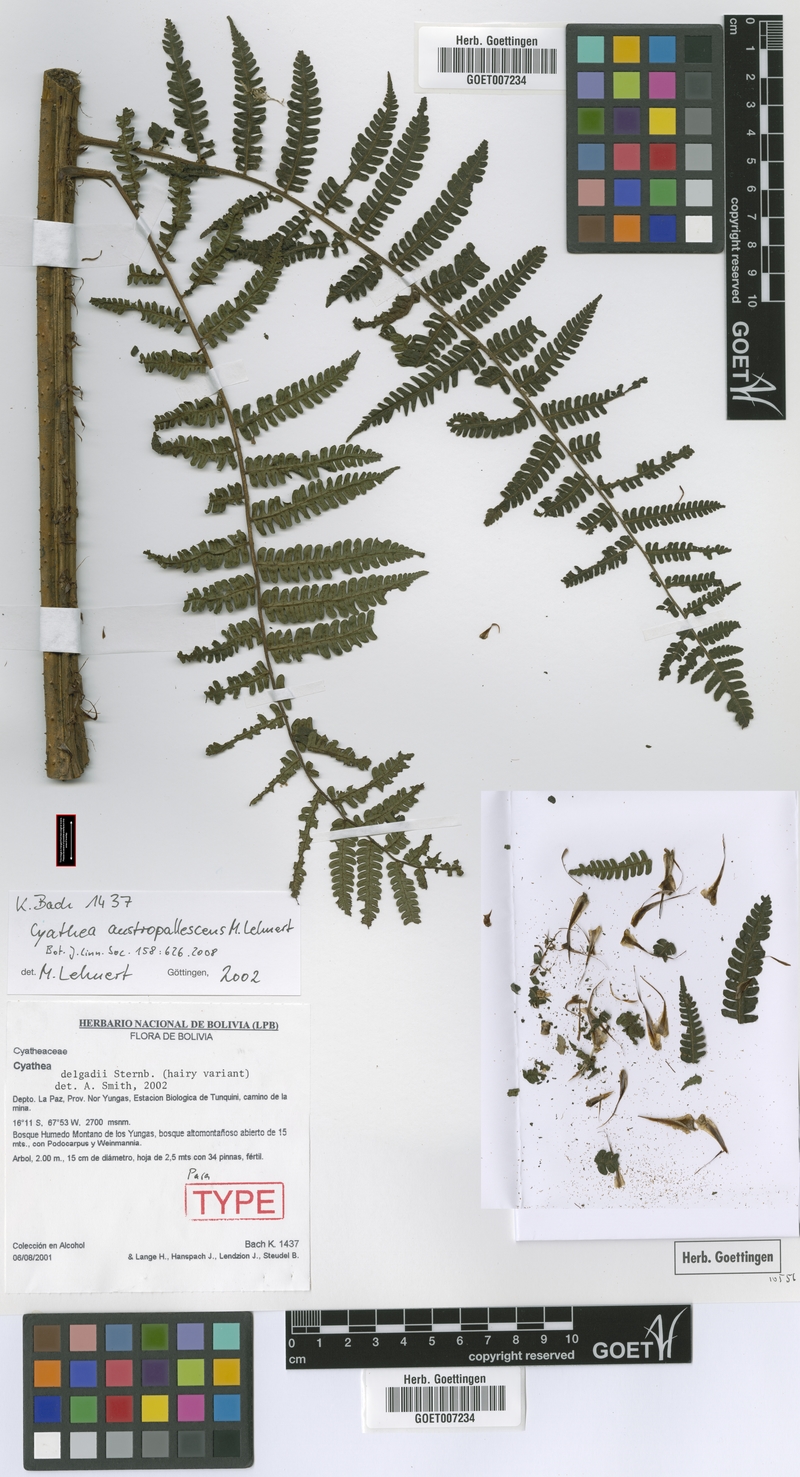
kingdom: Plantae
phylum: Tracheophyta
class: Polypodiopsida
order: Cyatheales
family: Cyatheaceae
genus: Cyathea
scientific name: Cyathea austropallescens
